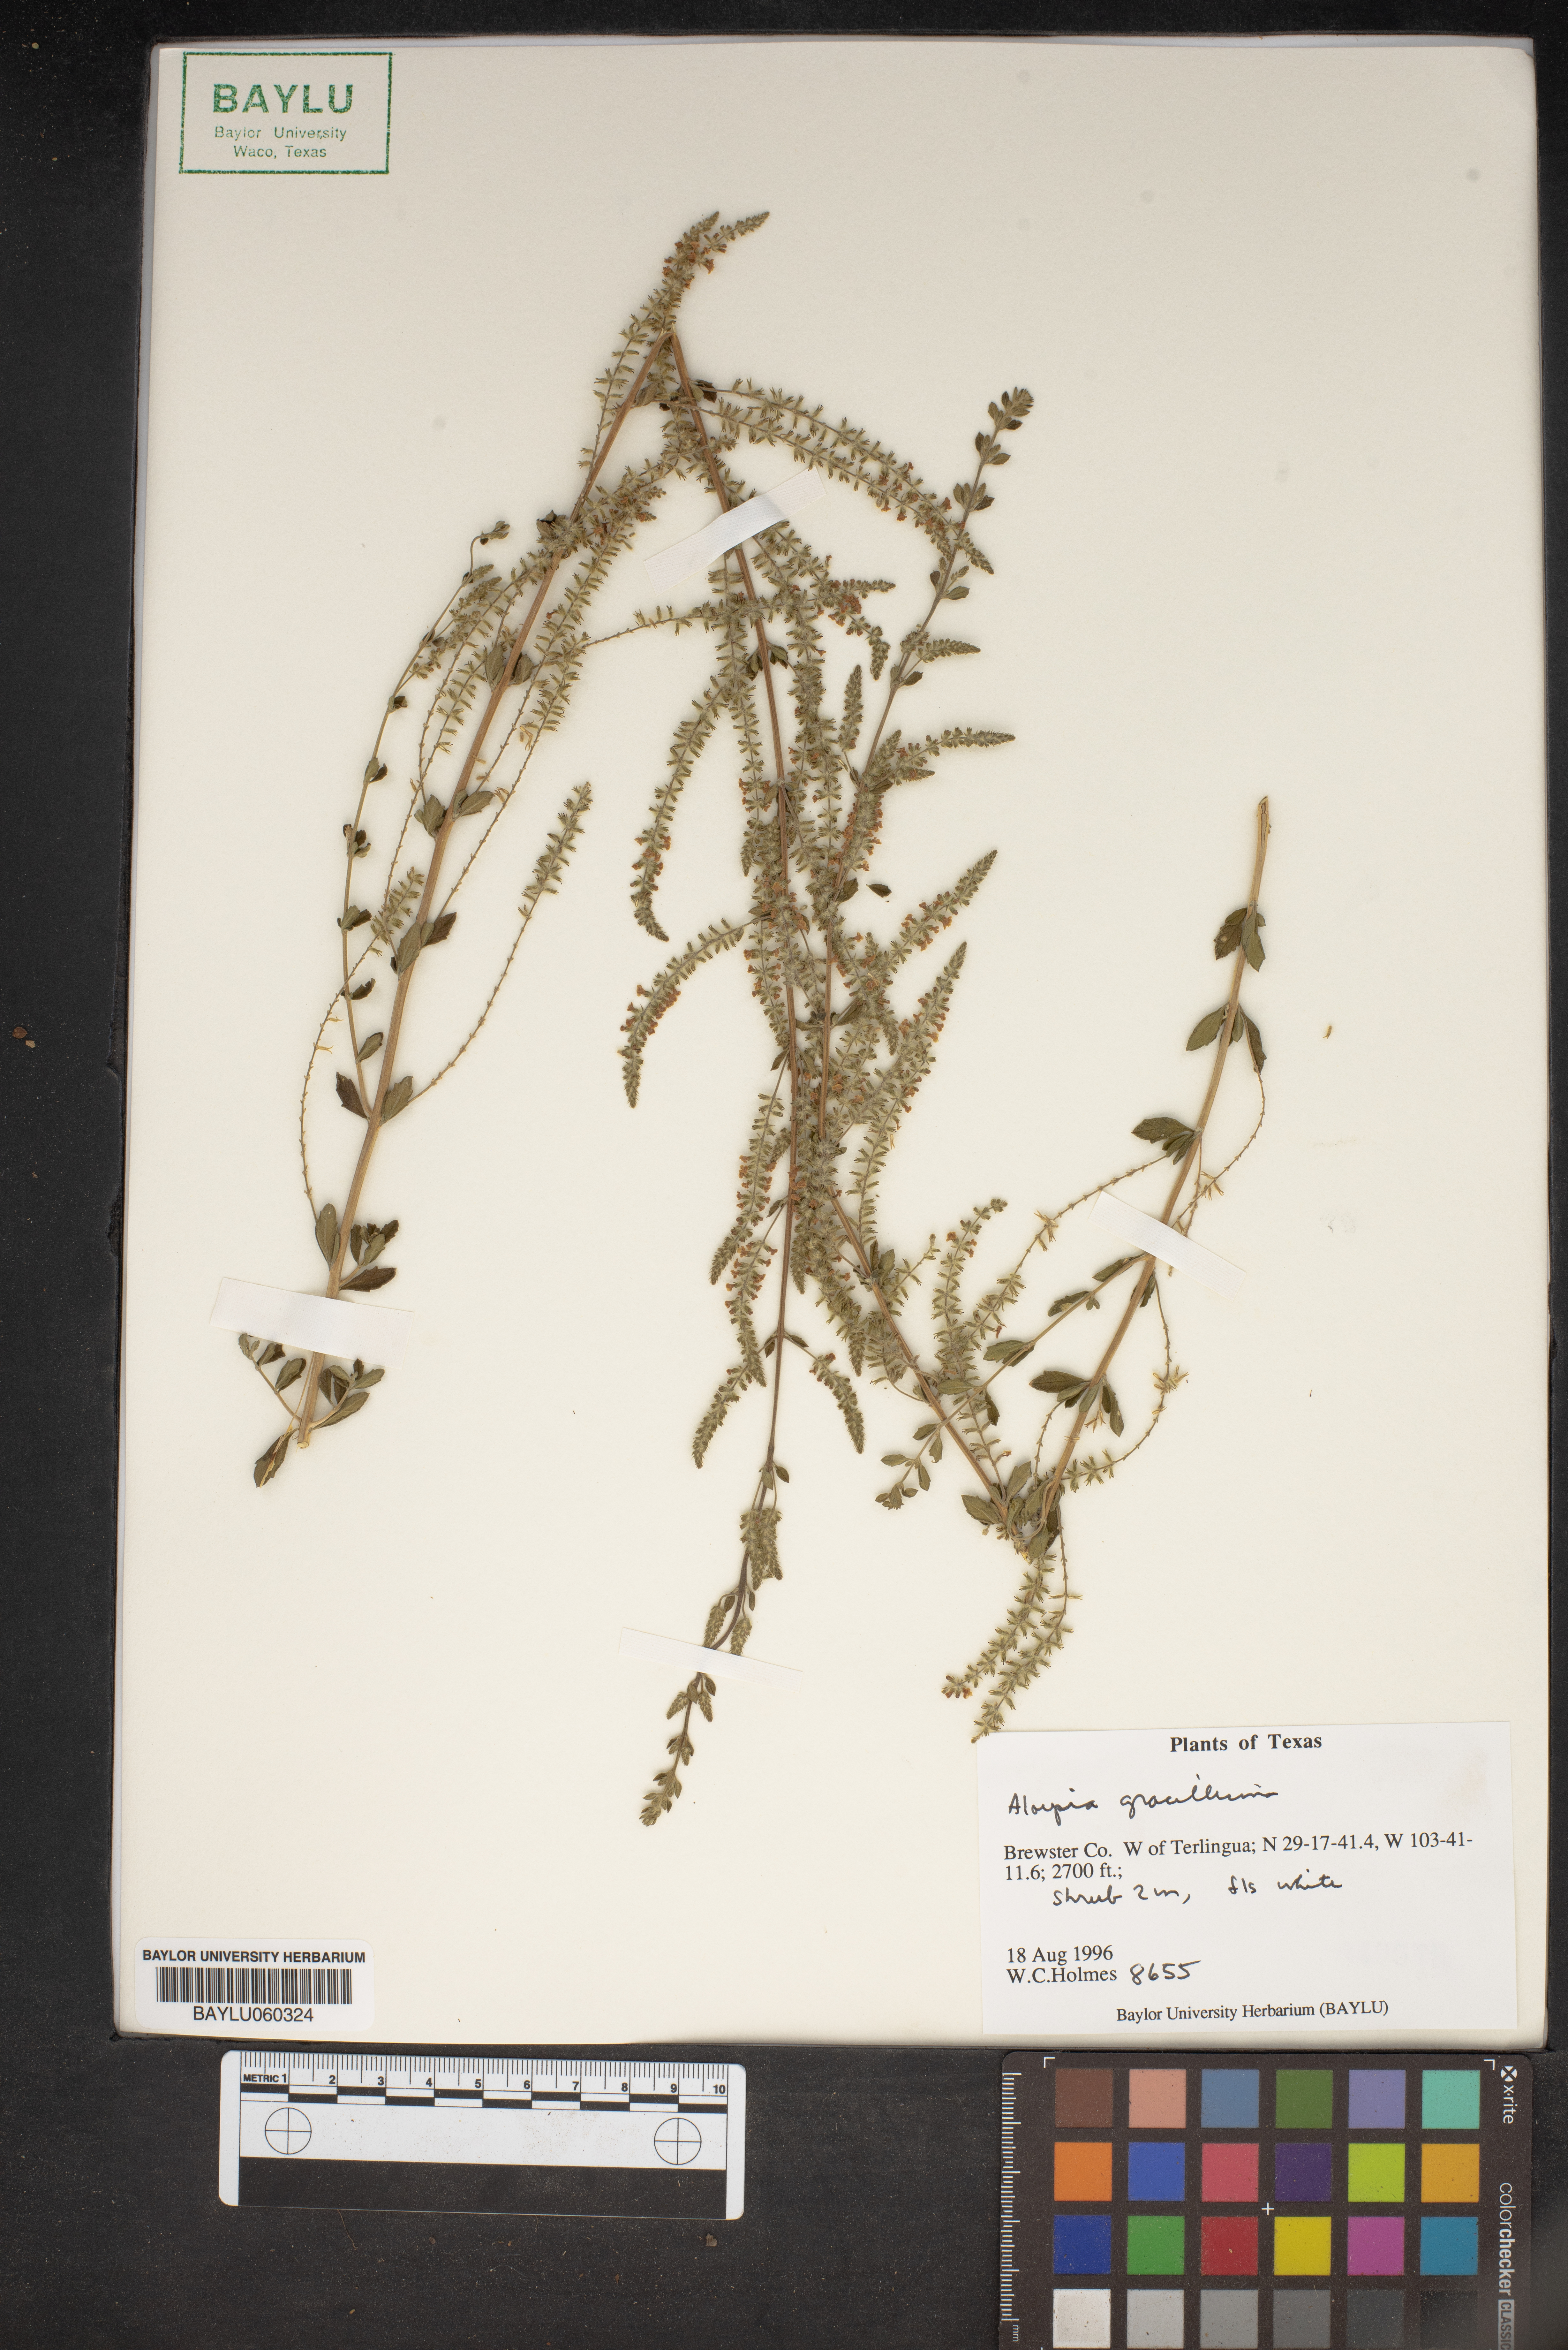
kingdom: Plantae
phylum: Tracheophyta
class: Magnoliopsida
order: Lamiales
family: Verbenaceae
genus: Aloysia
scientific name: Aloysia
